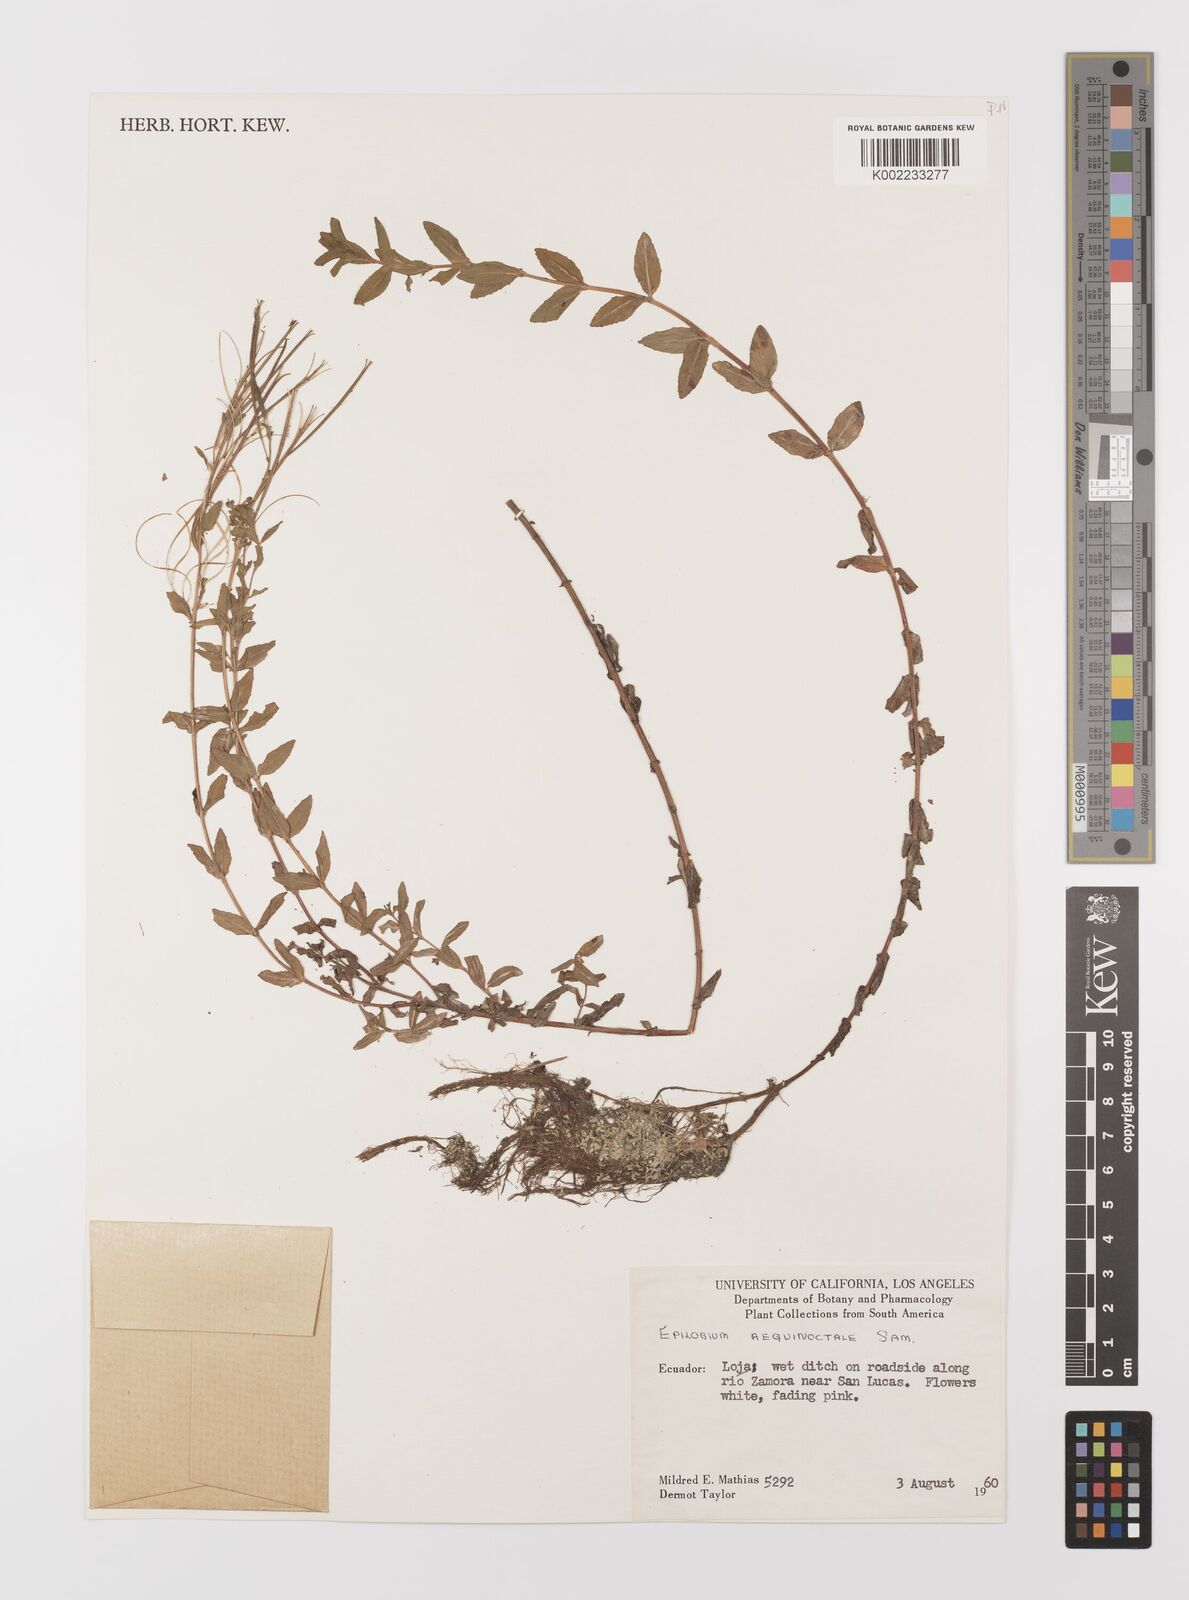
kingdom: Plantae
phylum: Tracheophyta
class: Magnoliopsida
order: Myrtales
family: Onagraceae
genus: Epilobium
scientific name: Epilobium denticulatum
